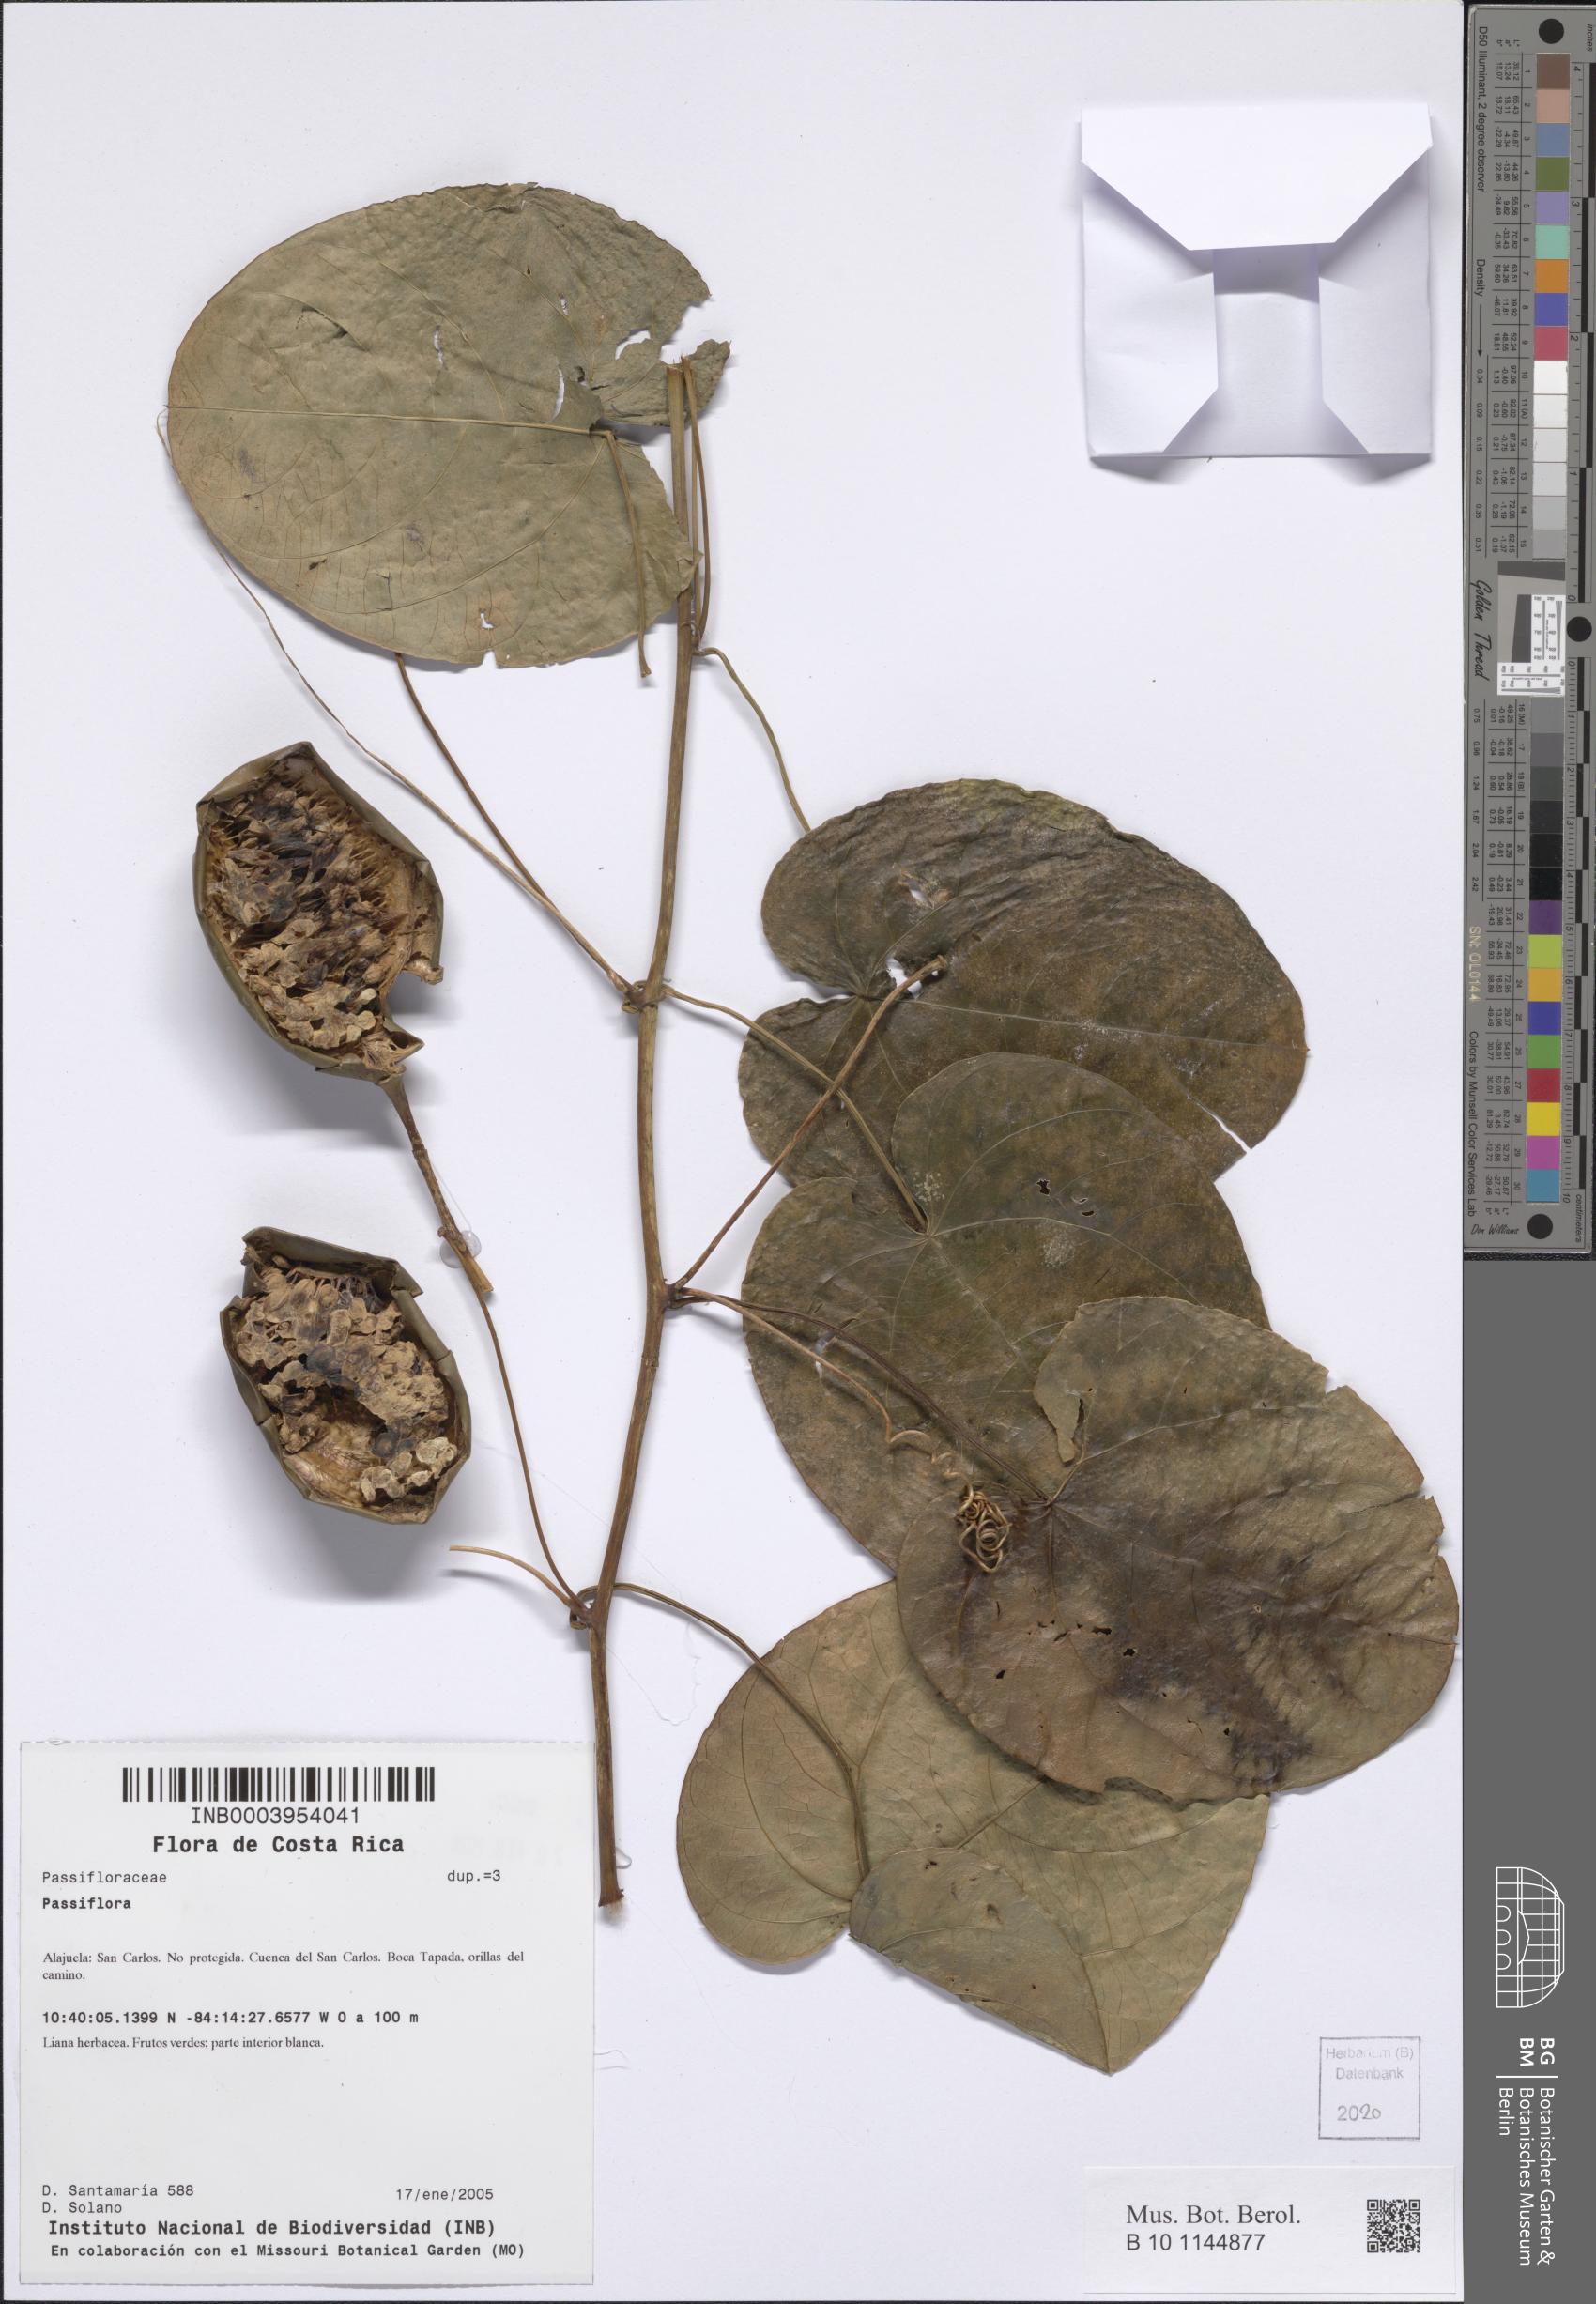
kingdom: Plantae
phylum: Tracheophyta
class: Magnoliopsida
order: Malpighiales
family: Passifloraceae
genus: Passiflora
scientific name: Passiflora
